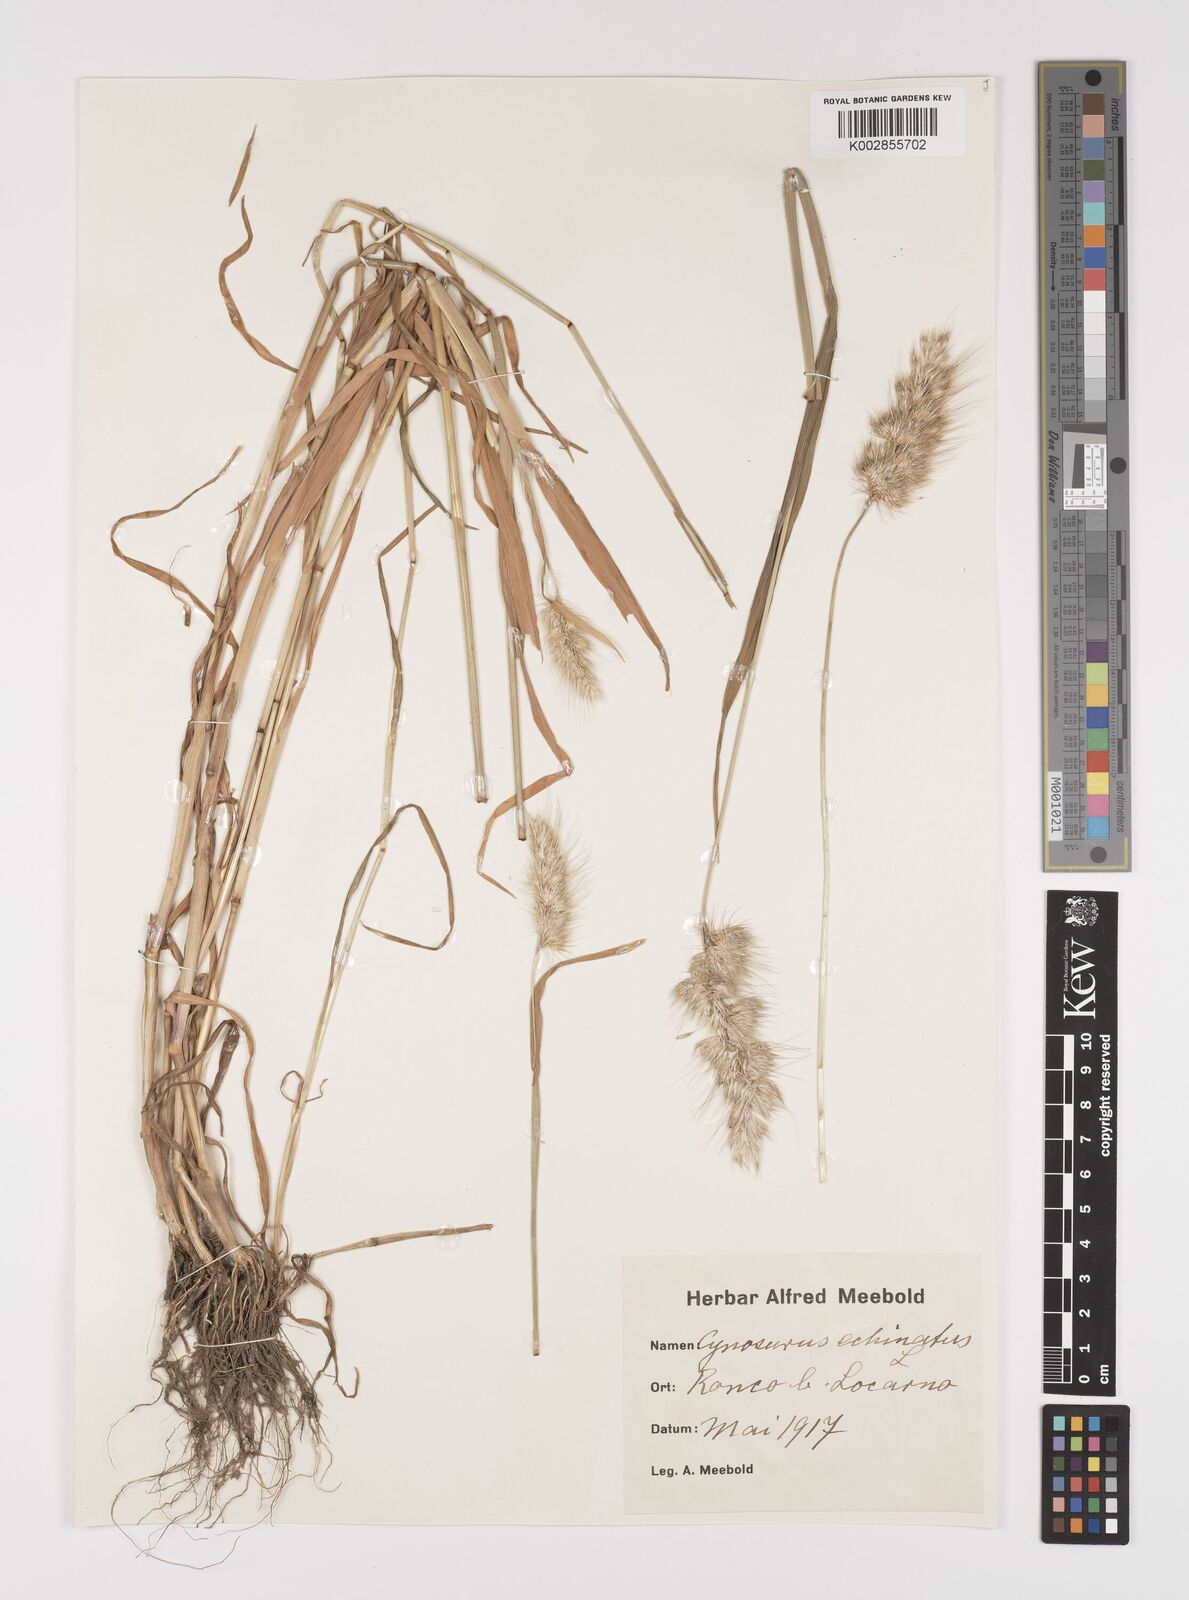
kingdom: Plantae
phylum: Tracheophyta
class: Liliopsida
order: Poales
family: Poaceae
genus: Cynosurus
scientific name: Cynosurus echinatus
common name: Rough dog's-tail
